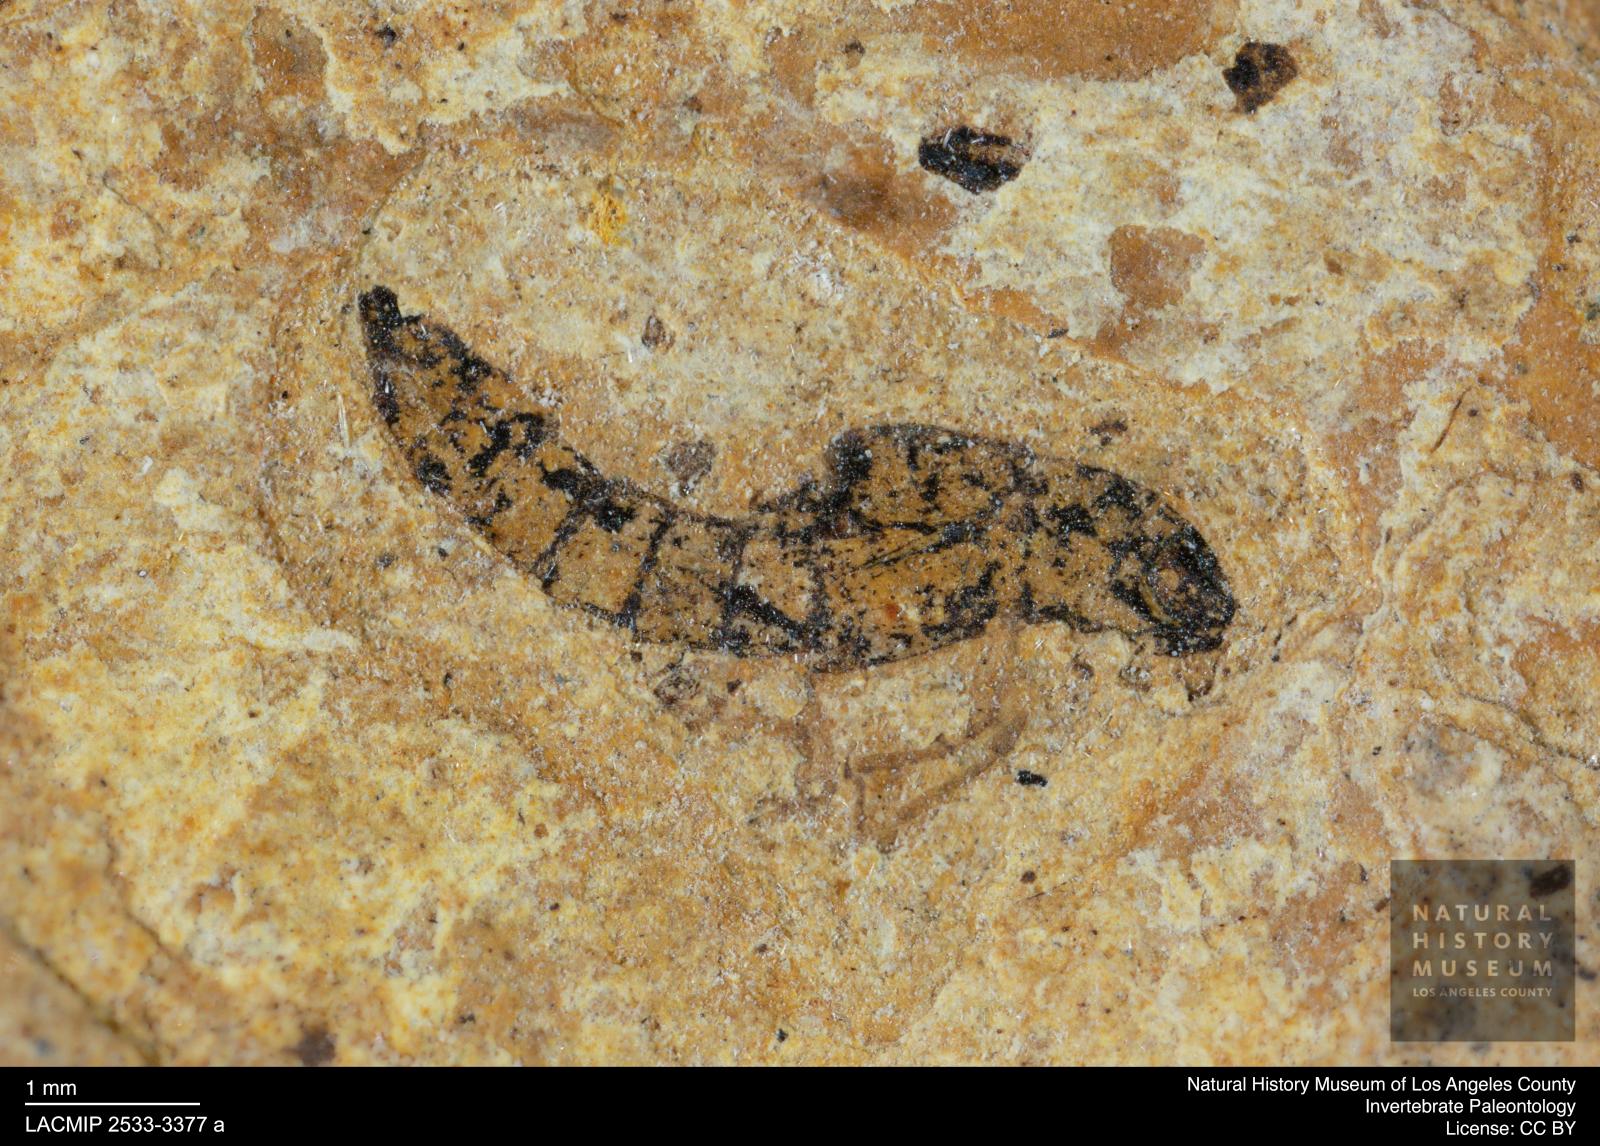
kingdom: Animalia
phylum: Arthropoda
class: Insecta
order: Coleoptera
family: Staphylinidae
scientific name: Staphylinidae
